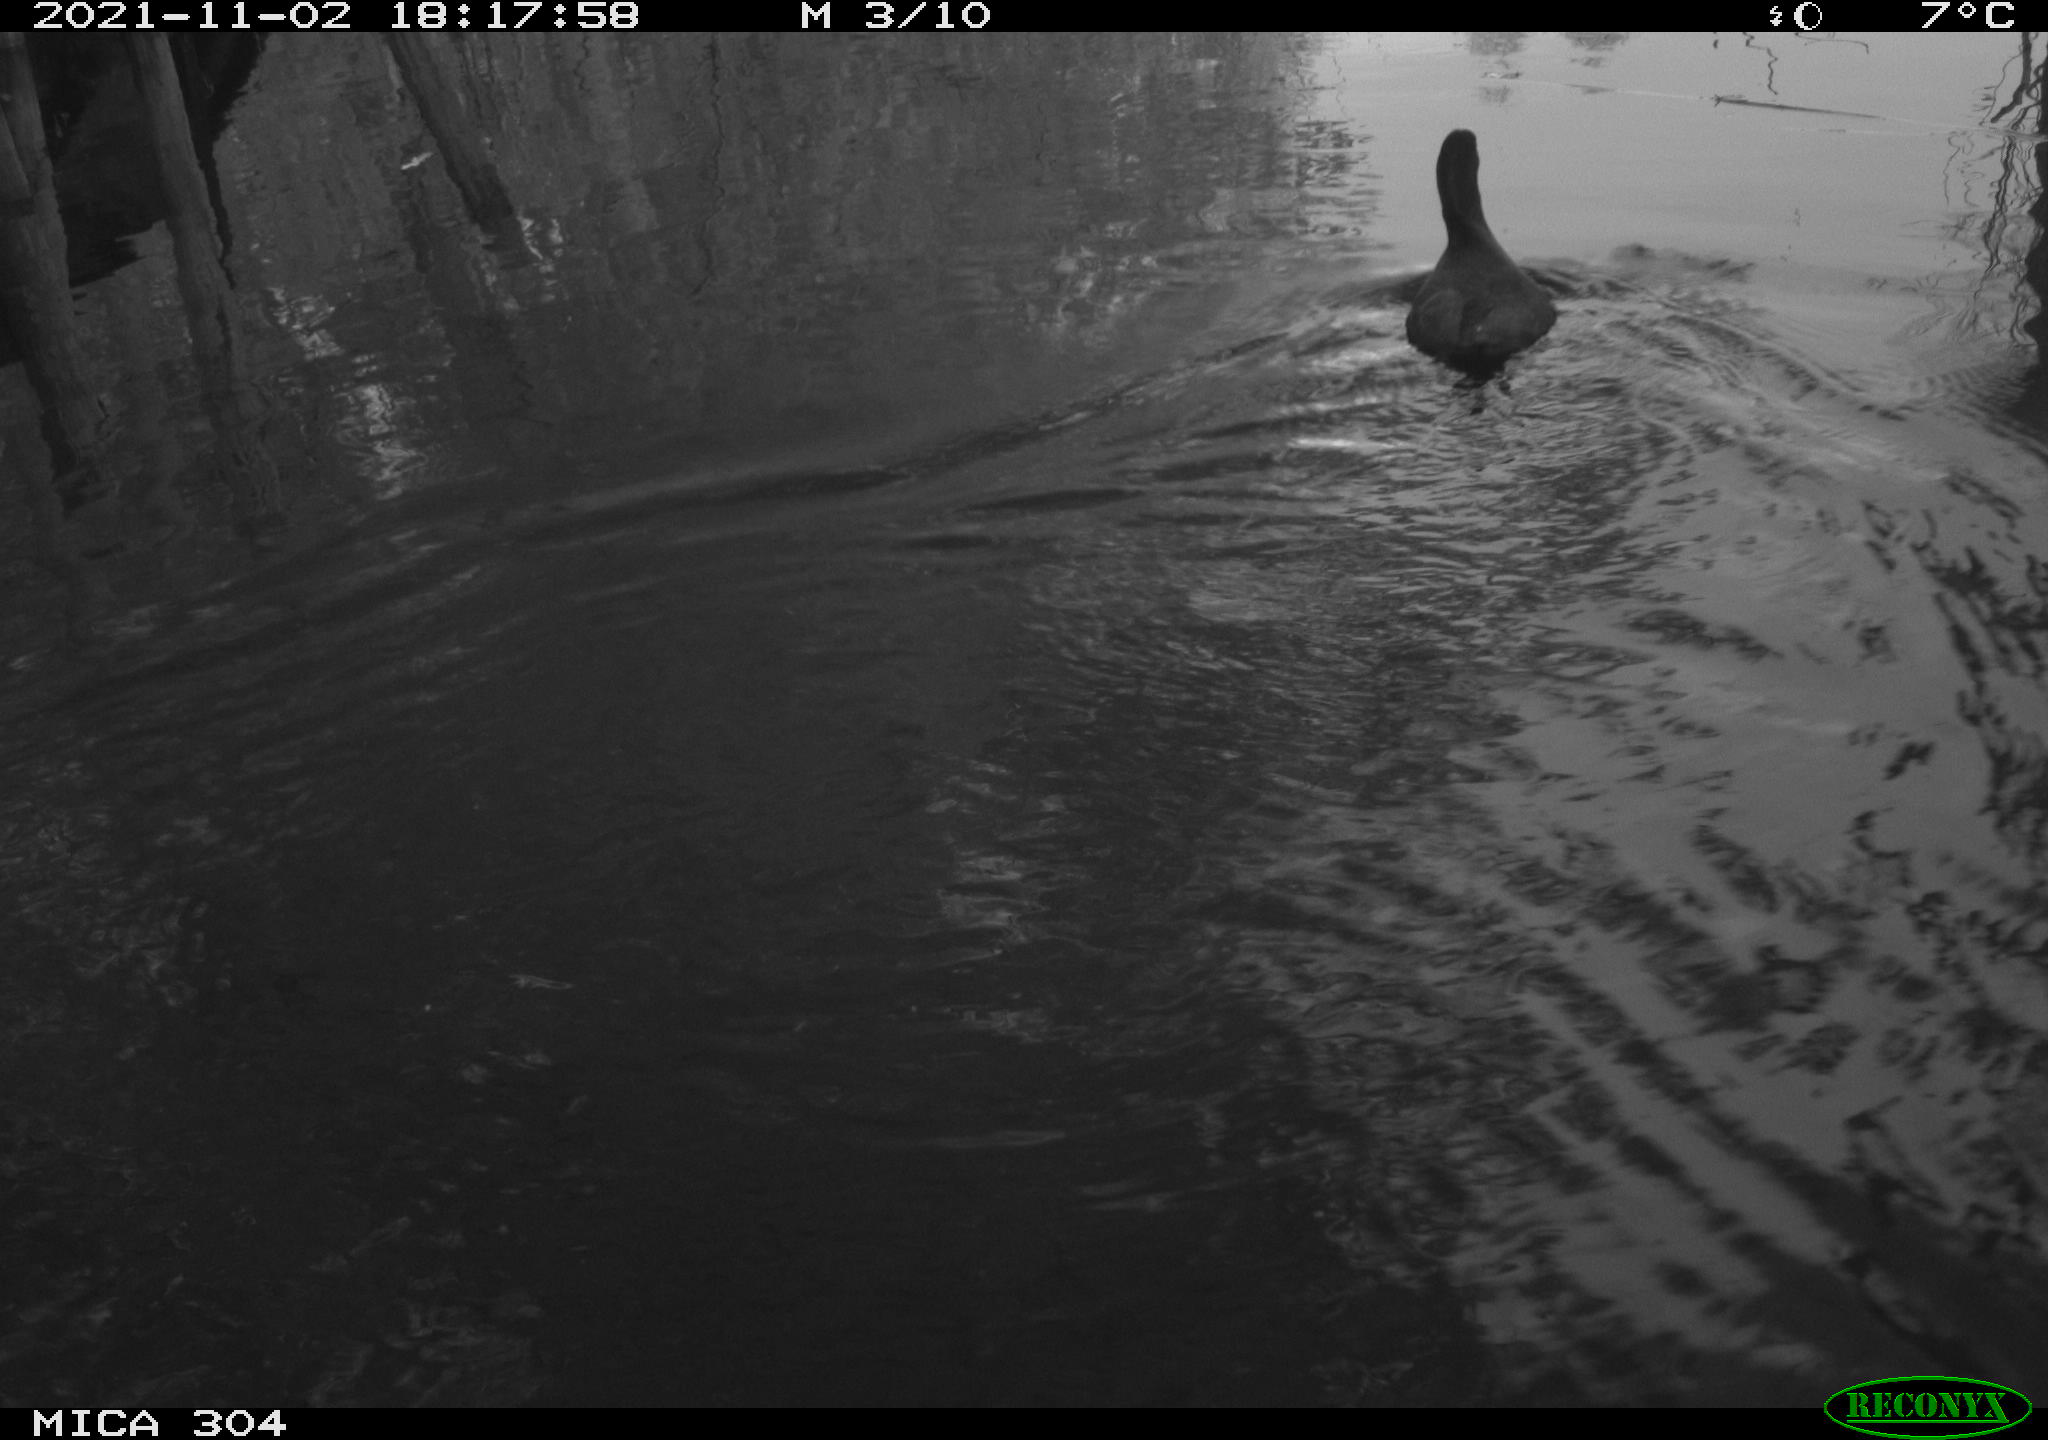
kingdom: Animalia
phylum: Chordata
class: Aves
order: Gruiformes
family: Rallidae
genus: Fulica
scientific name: Fulica atra
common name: Eurasian coot
